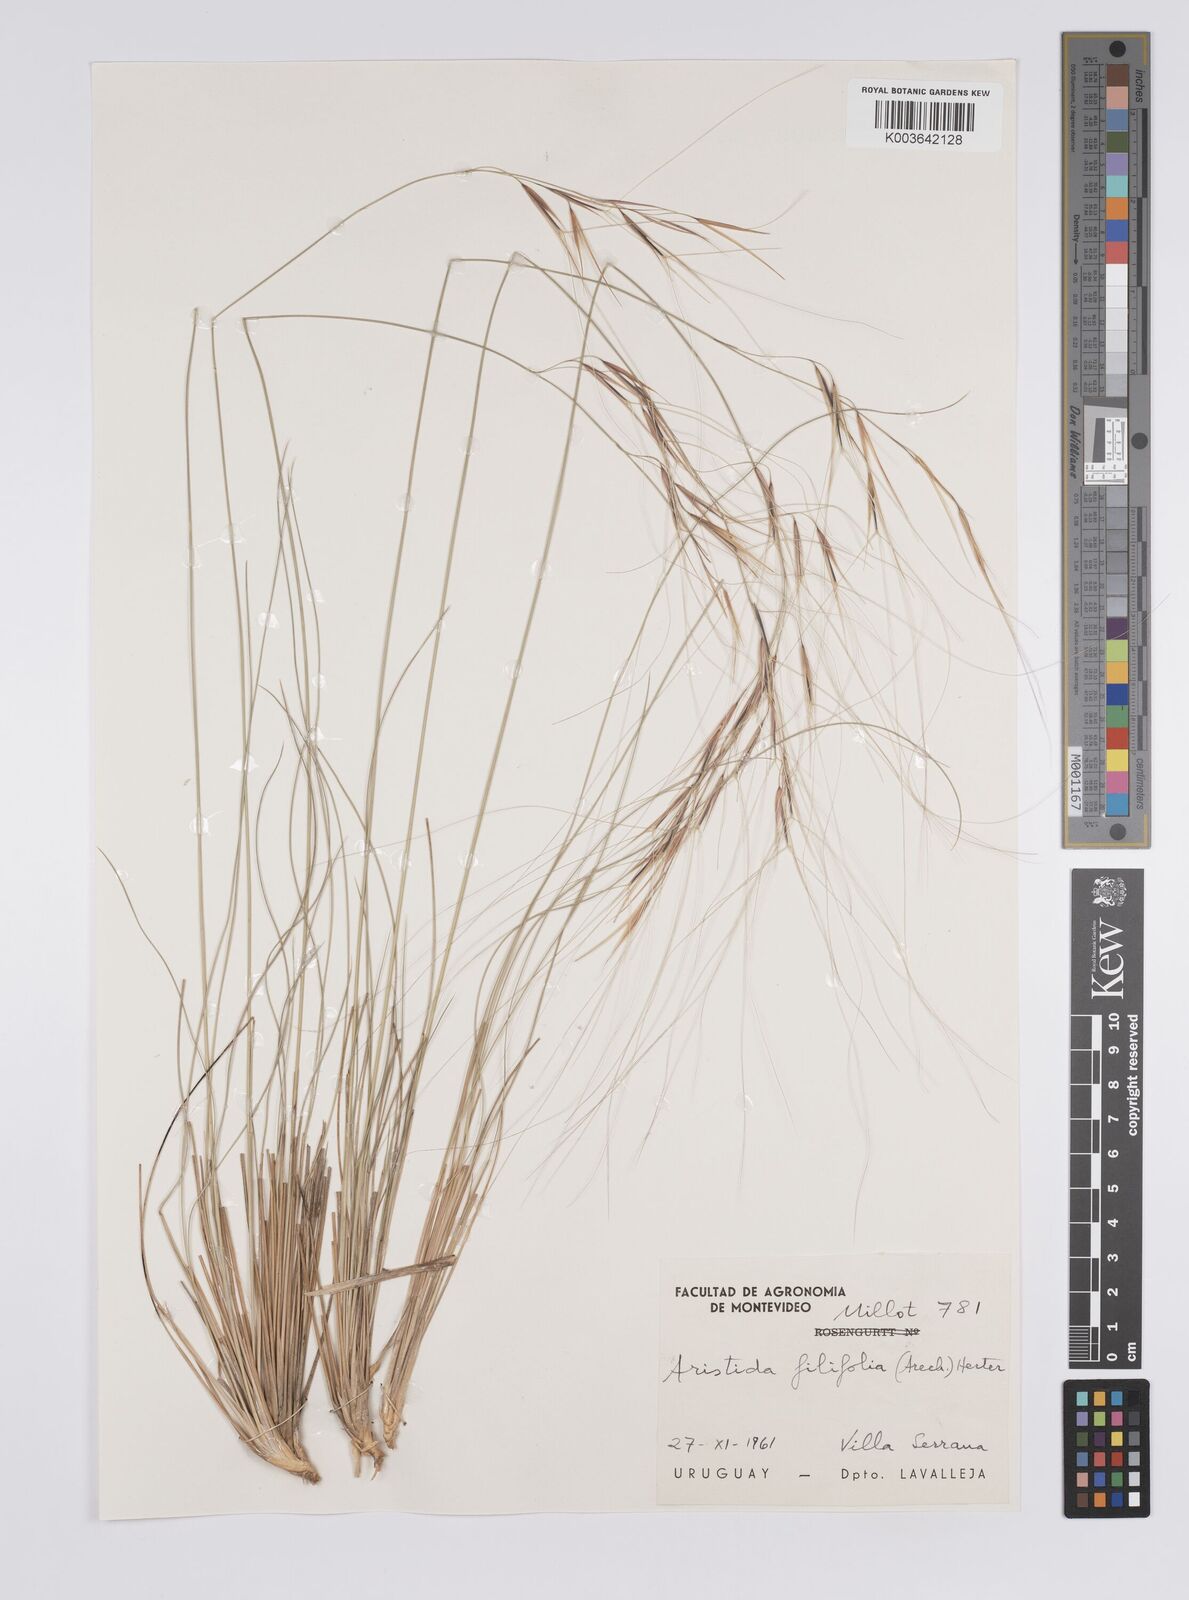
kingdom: Plantae
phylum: Tracheophyta
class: Liliopsida
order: Poales
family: Poaceae
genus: Aristida
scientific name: Aristida filifolia
